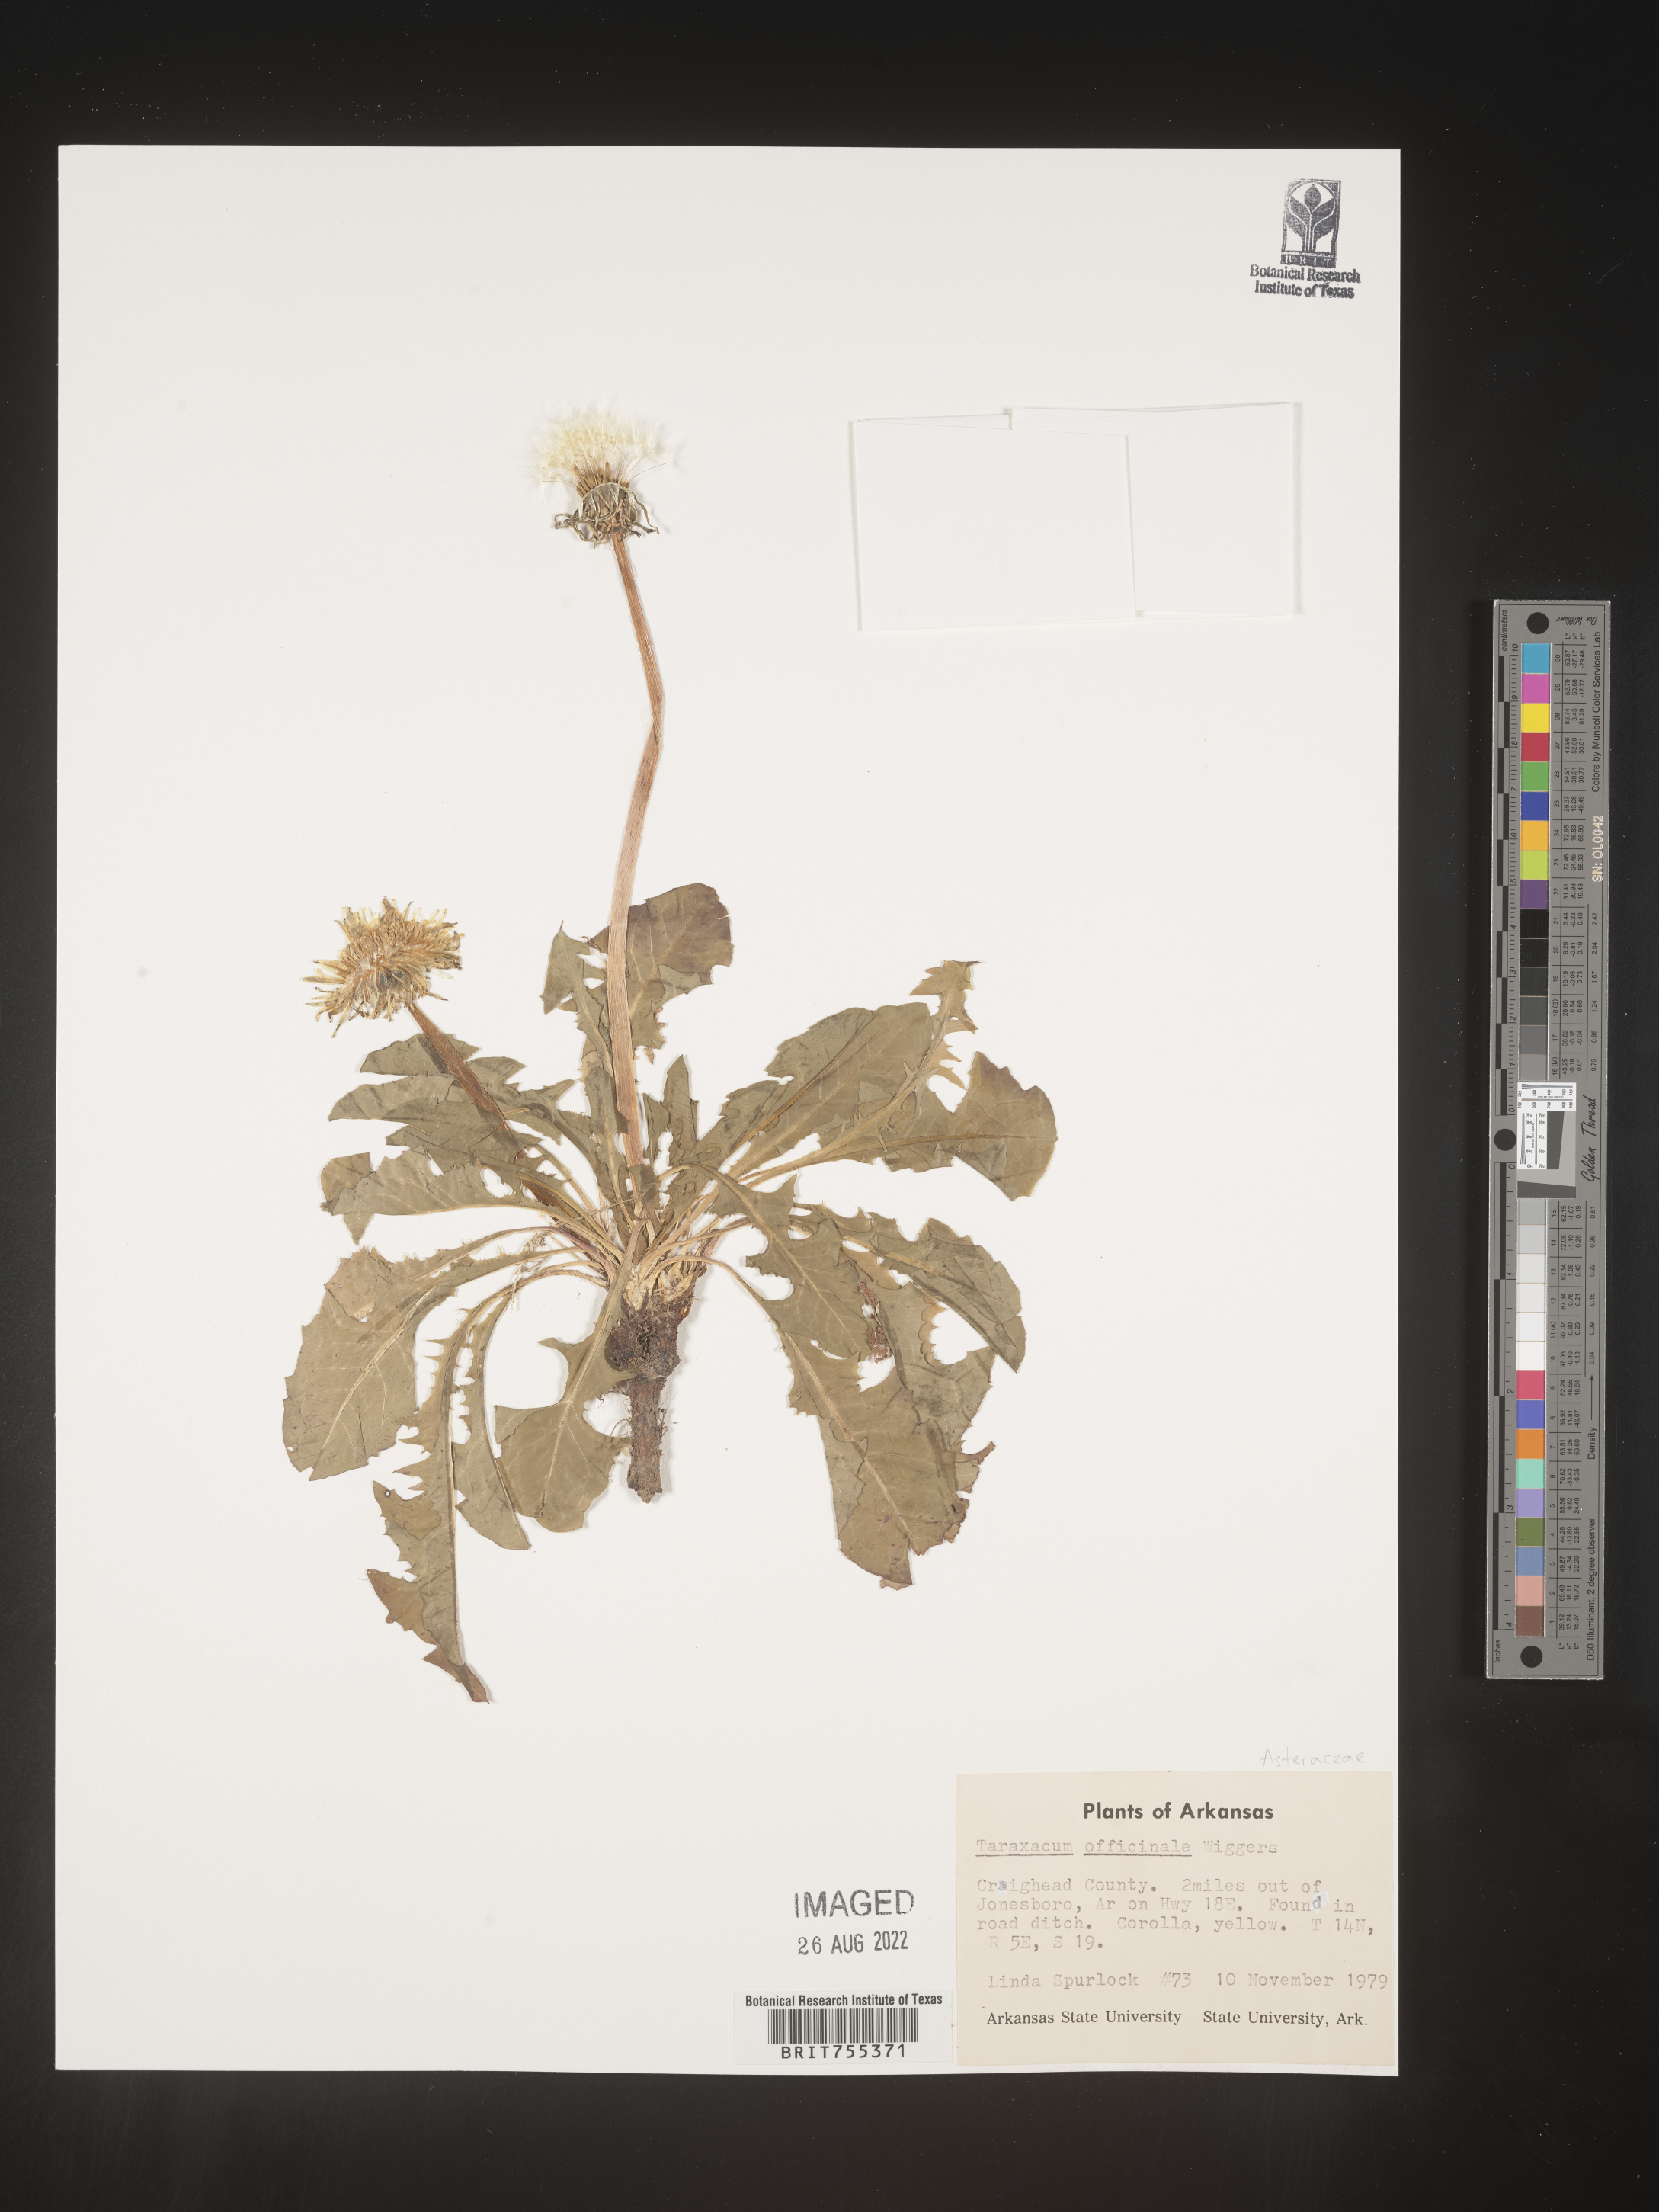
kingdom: Plantae
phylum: Tracheophyta
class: Magnoliopsida
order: Asterales
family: Asteraceae
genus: Taraxacum
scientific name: Taraxacum officinale
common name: Common dandelion
